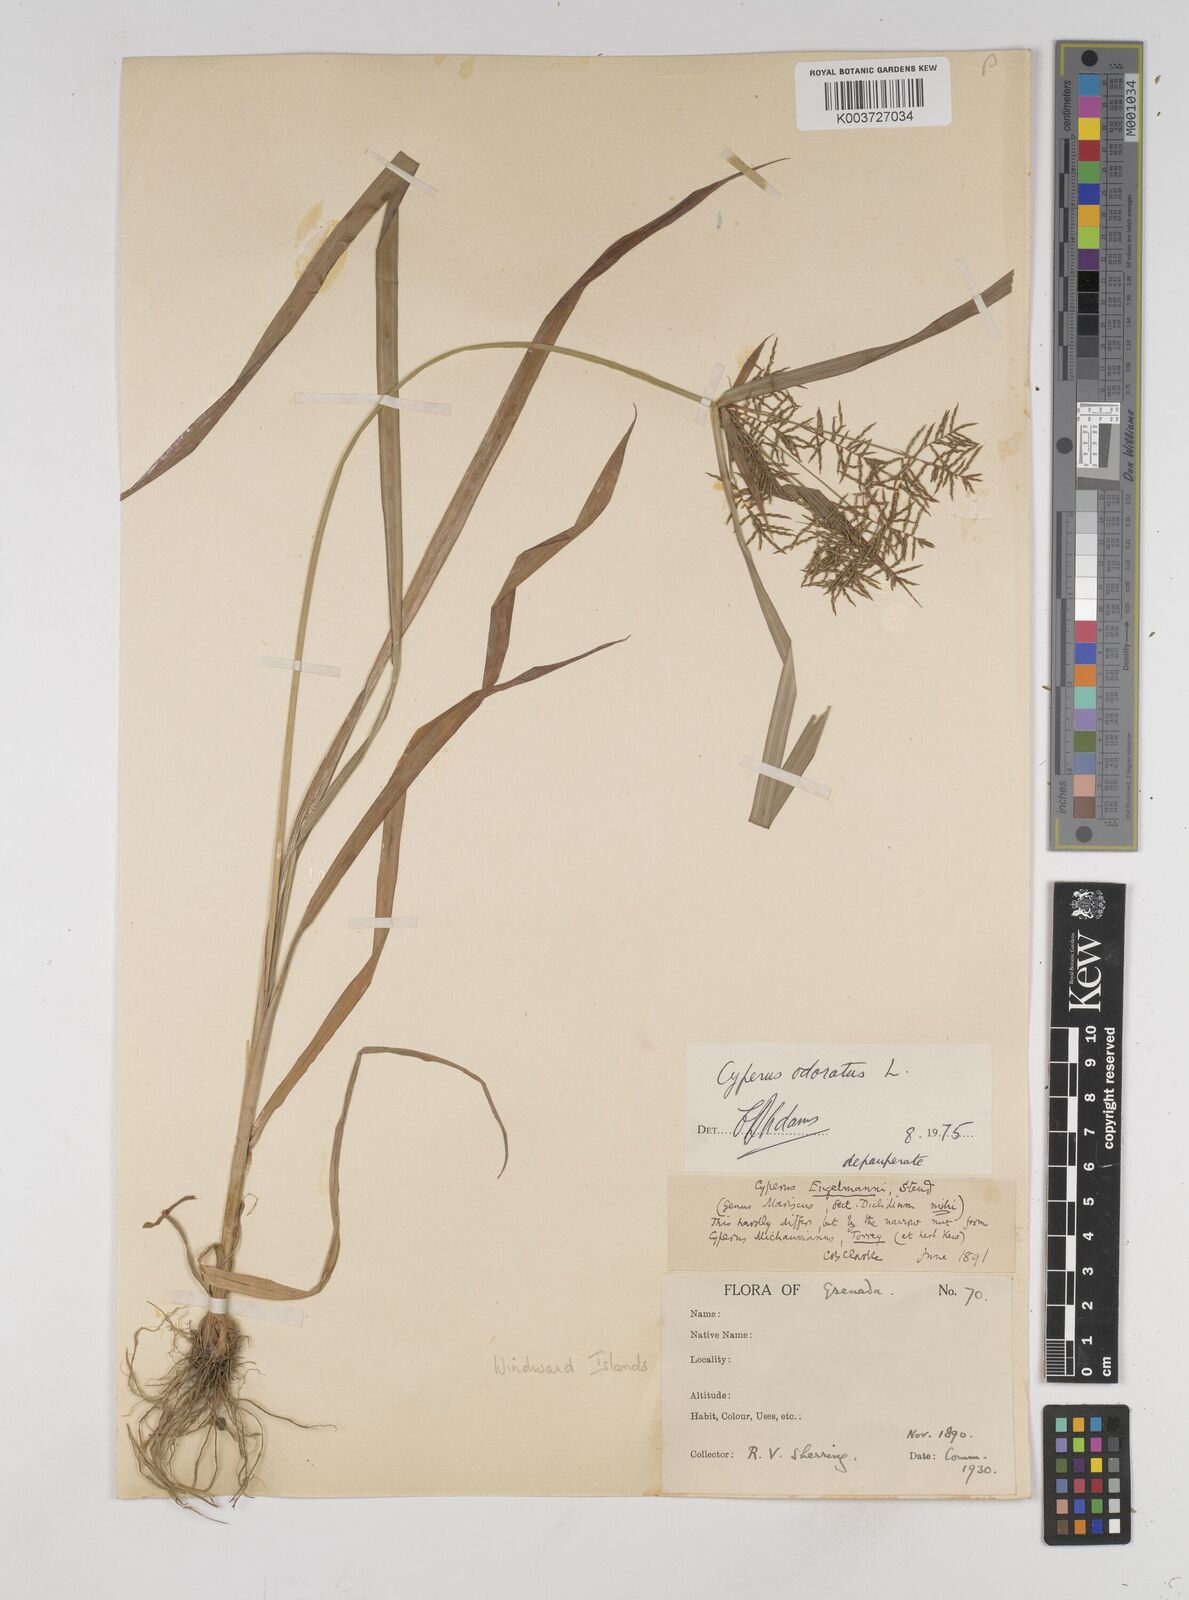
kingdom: Plantae
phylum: Tracheophyta
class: Liliopsida
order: Poales
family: Cyperaceae
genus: Cyperus
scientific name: Cyperus odoratus
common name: Fragrant flatsedge
